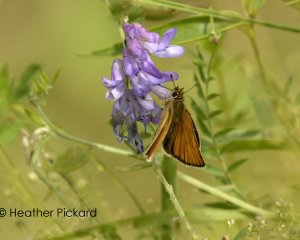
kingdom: Animalia
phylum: Arthropoda
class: Insecta
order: Lepidoptera
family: Hesperiidae
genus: Thymelicus
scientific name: Thymelicus lineola
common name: European Skipper
